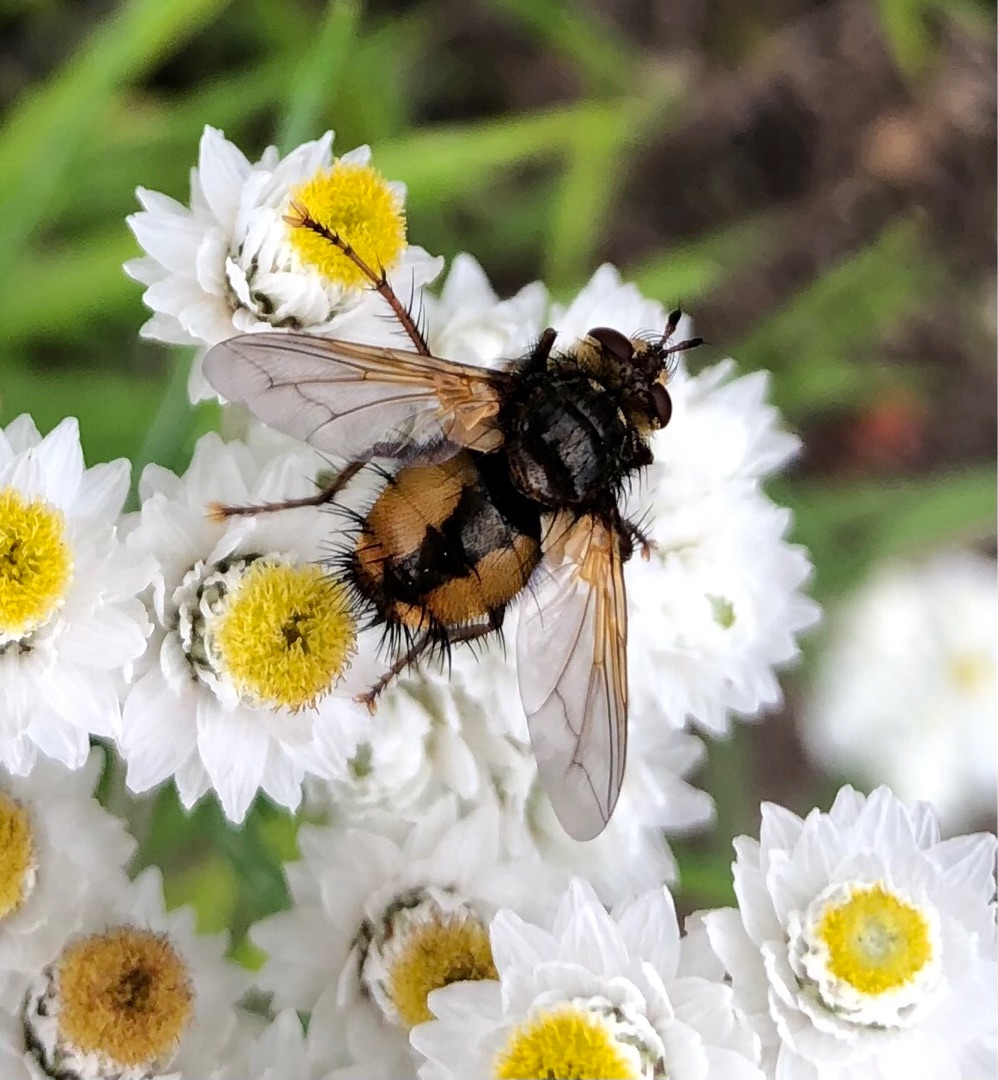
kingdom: Animalia
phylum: Arthropoda
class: Insecta
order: Diptera
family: Tachinidae
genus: Tachina
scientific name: Tachina fera
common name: Mellemfluen oskar
